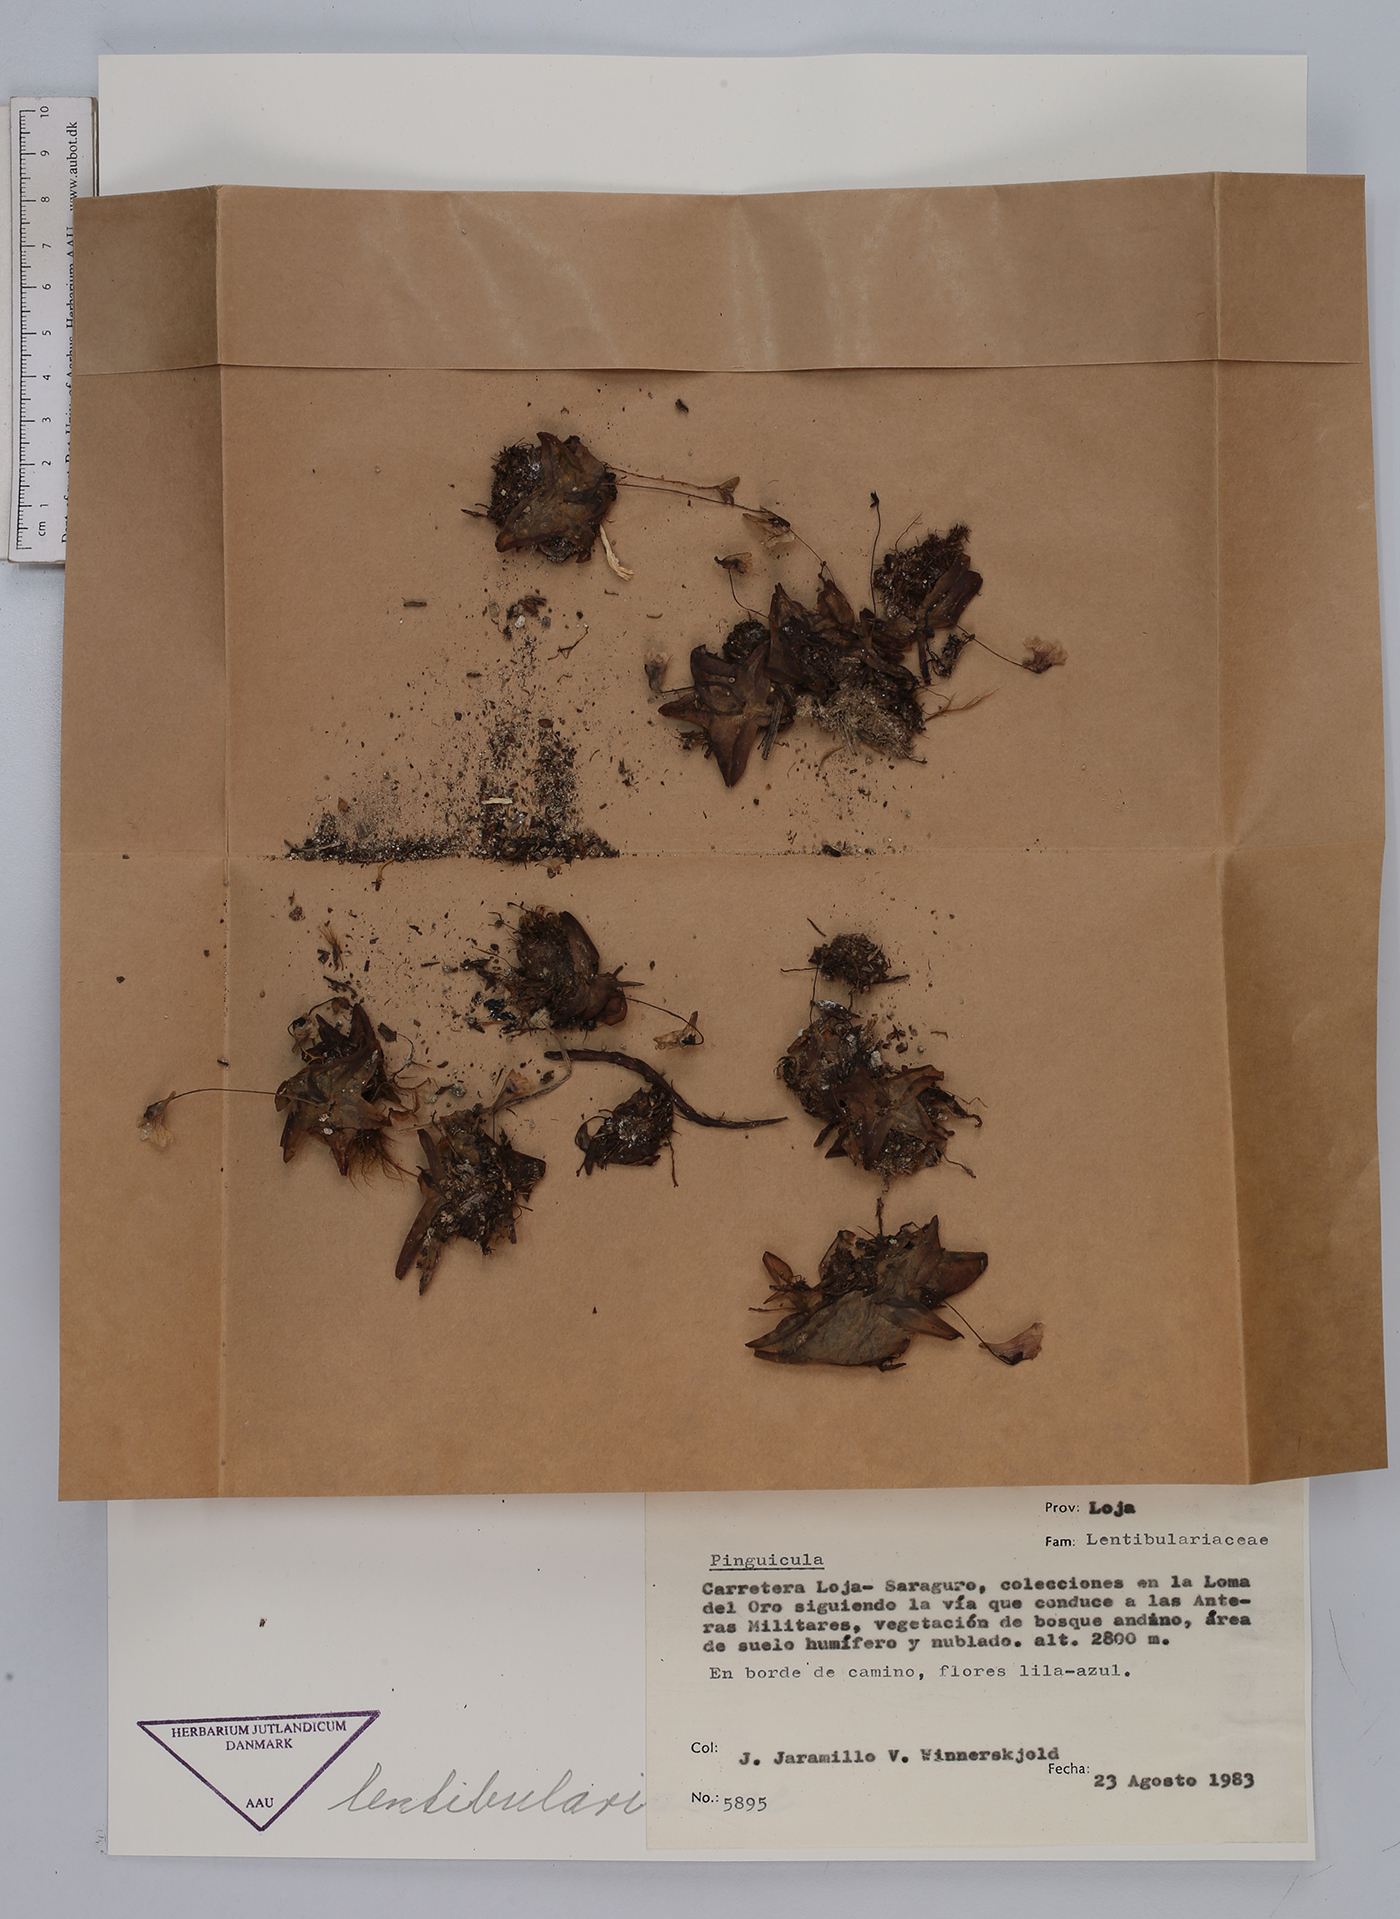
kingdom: Plantae
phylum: Tracheophyta
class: Magnoliopsida
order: Lamiales
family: Lentibulariaceae
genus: Pinguicula
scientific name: Pinguicula
